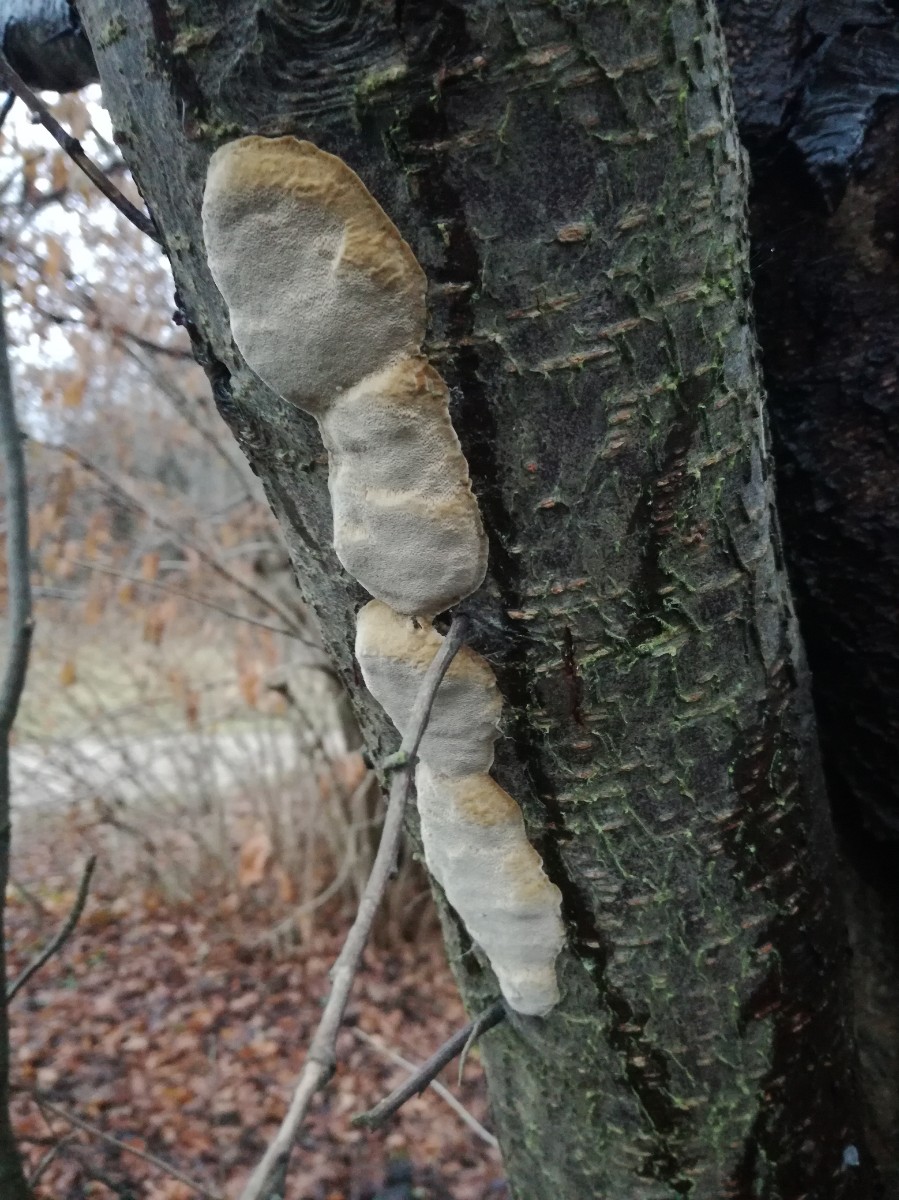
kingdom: Fungi
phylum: Basidiomycota
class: Agaricomycetes
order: Hymenochaetales
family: Hymenochaetaceae
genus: Phellinus
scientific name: Phellinus pomaceus
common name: blomme-ildporesvamp
